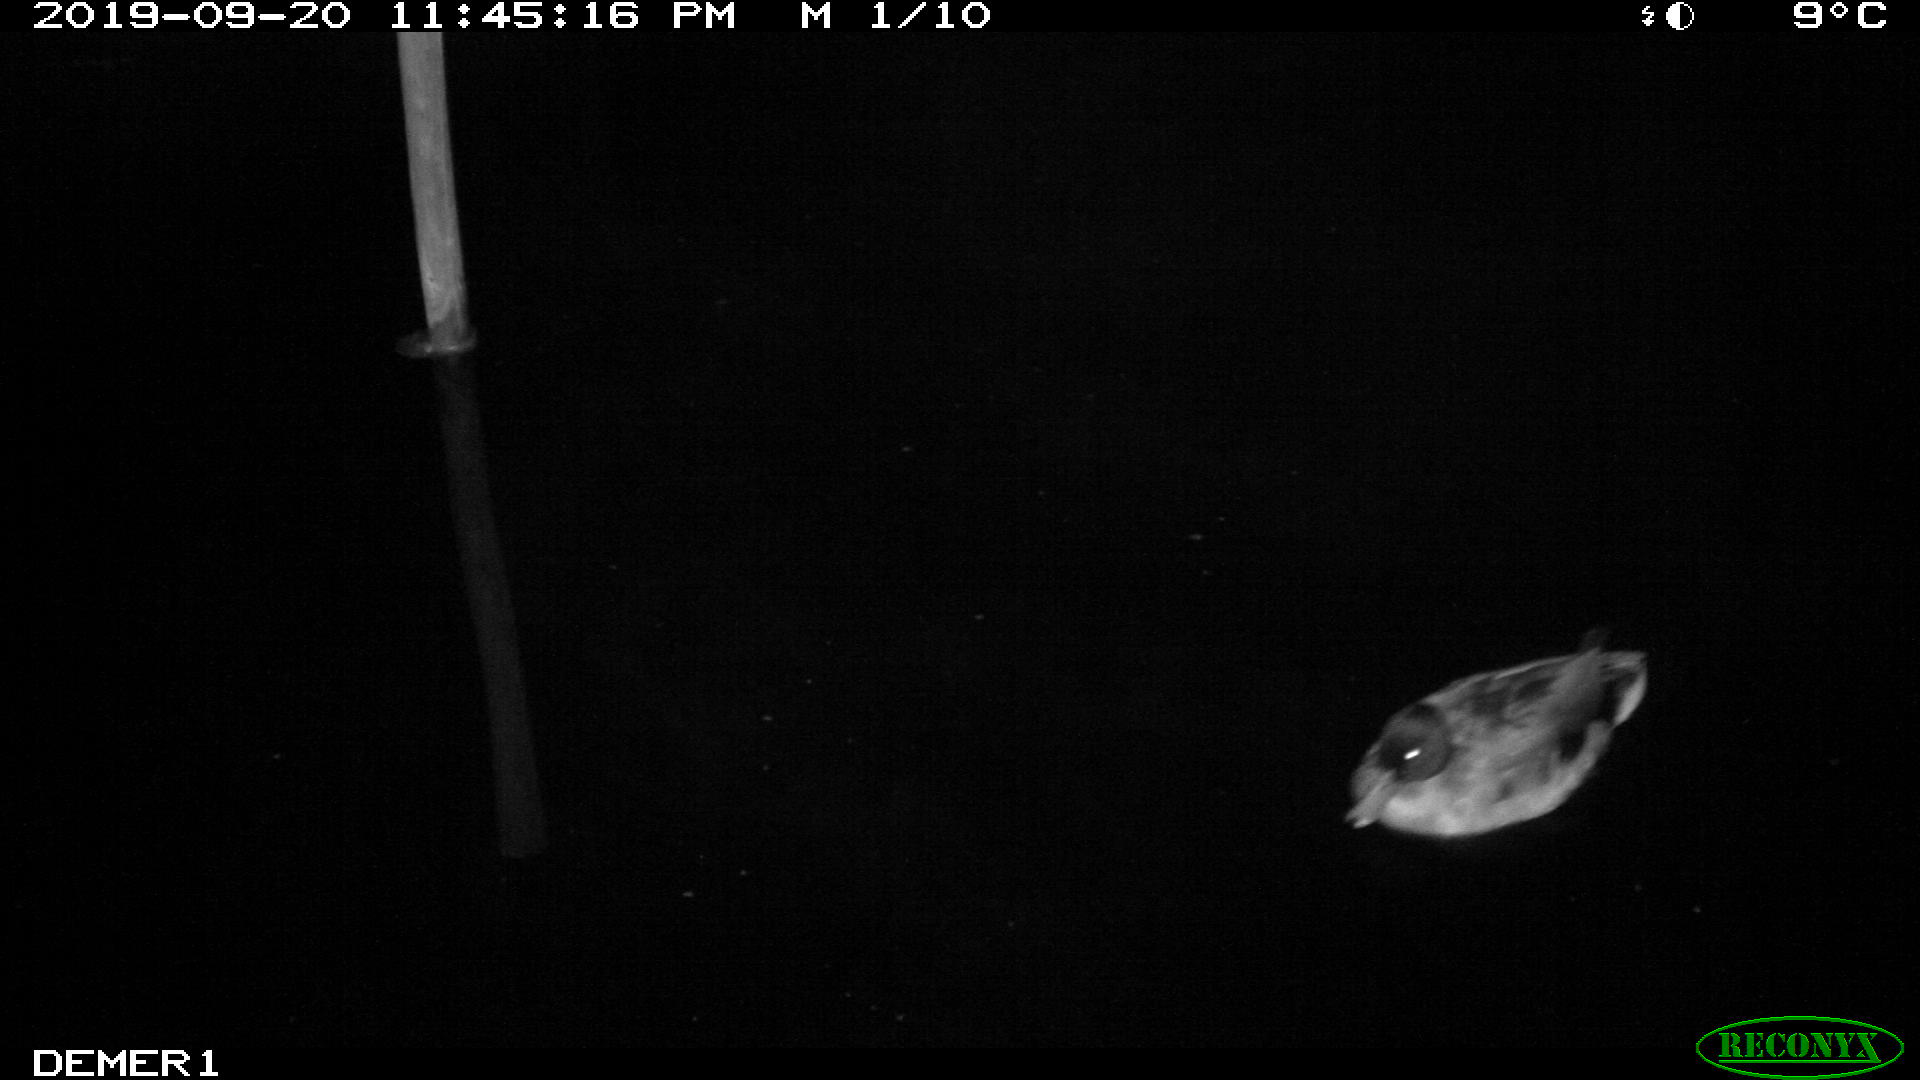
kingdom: Animalia
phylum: Chordata
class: Aves
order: Anseriformes
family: Anatidae
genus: Anas
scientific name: Anas platyrhynchos
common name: Mallard
